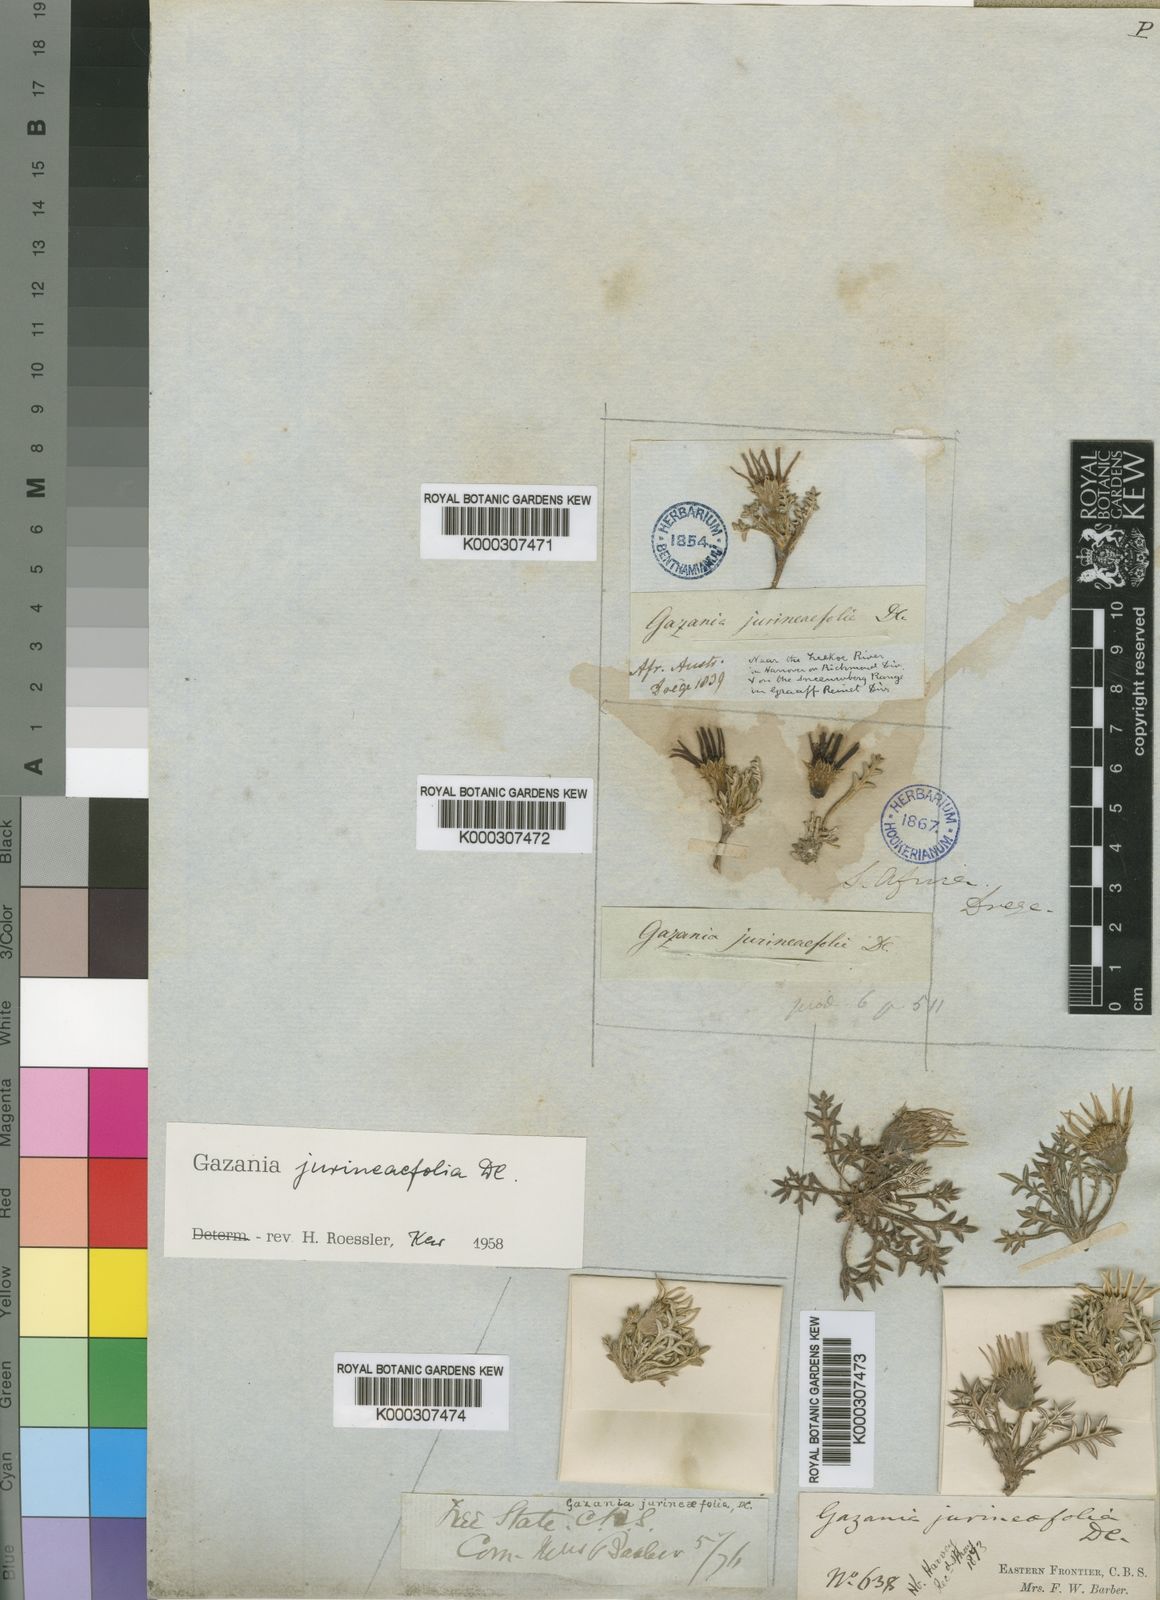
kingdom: Plantae
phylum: Tracheophyta
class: Magnoliopsida
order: Asterales
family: Asteraceae
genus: Gazania
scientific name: Gazania jurineifolia
